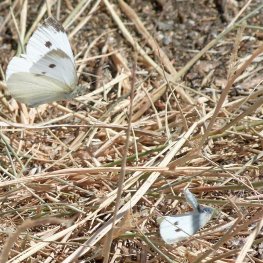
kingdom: Animalia
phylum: Arthropoda
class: Insecta
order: Lepidoptera
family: Pieridae
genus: Pieris
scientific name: Pieris rapae
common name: Cabbage White
